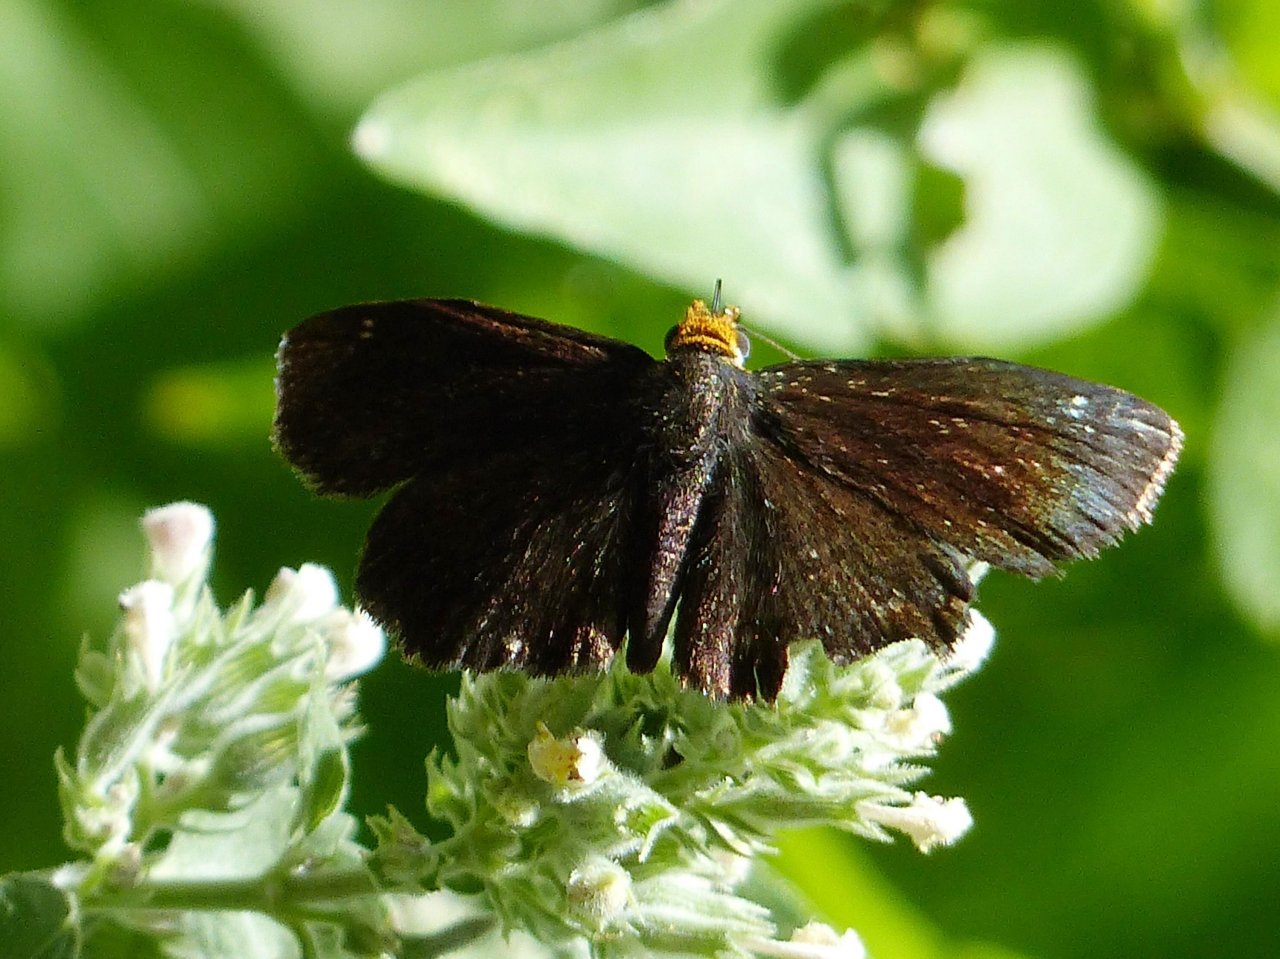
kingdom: Animalia
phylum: Arthropoda
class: Insecta
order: Lepidoptera
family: Hesperiidae
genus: Staphylus
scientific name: Staphylus ceos
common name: Golden-headed Scallopwing
